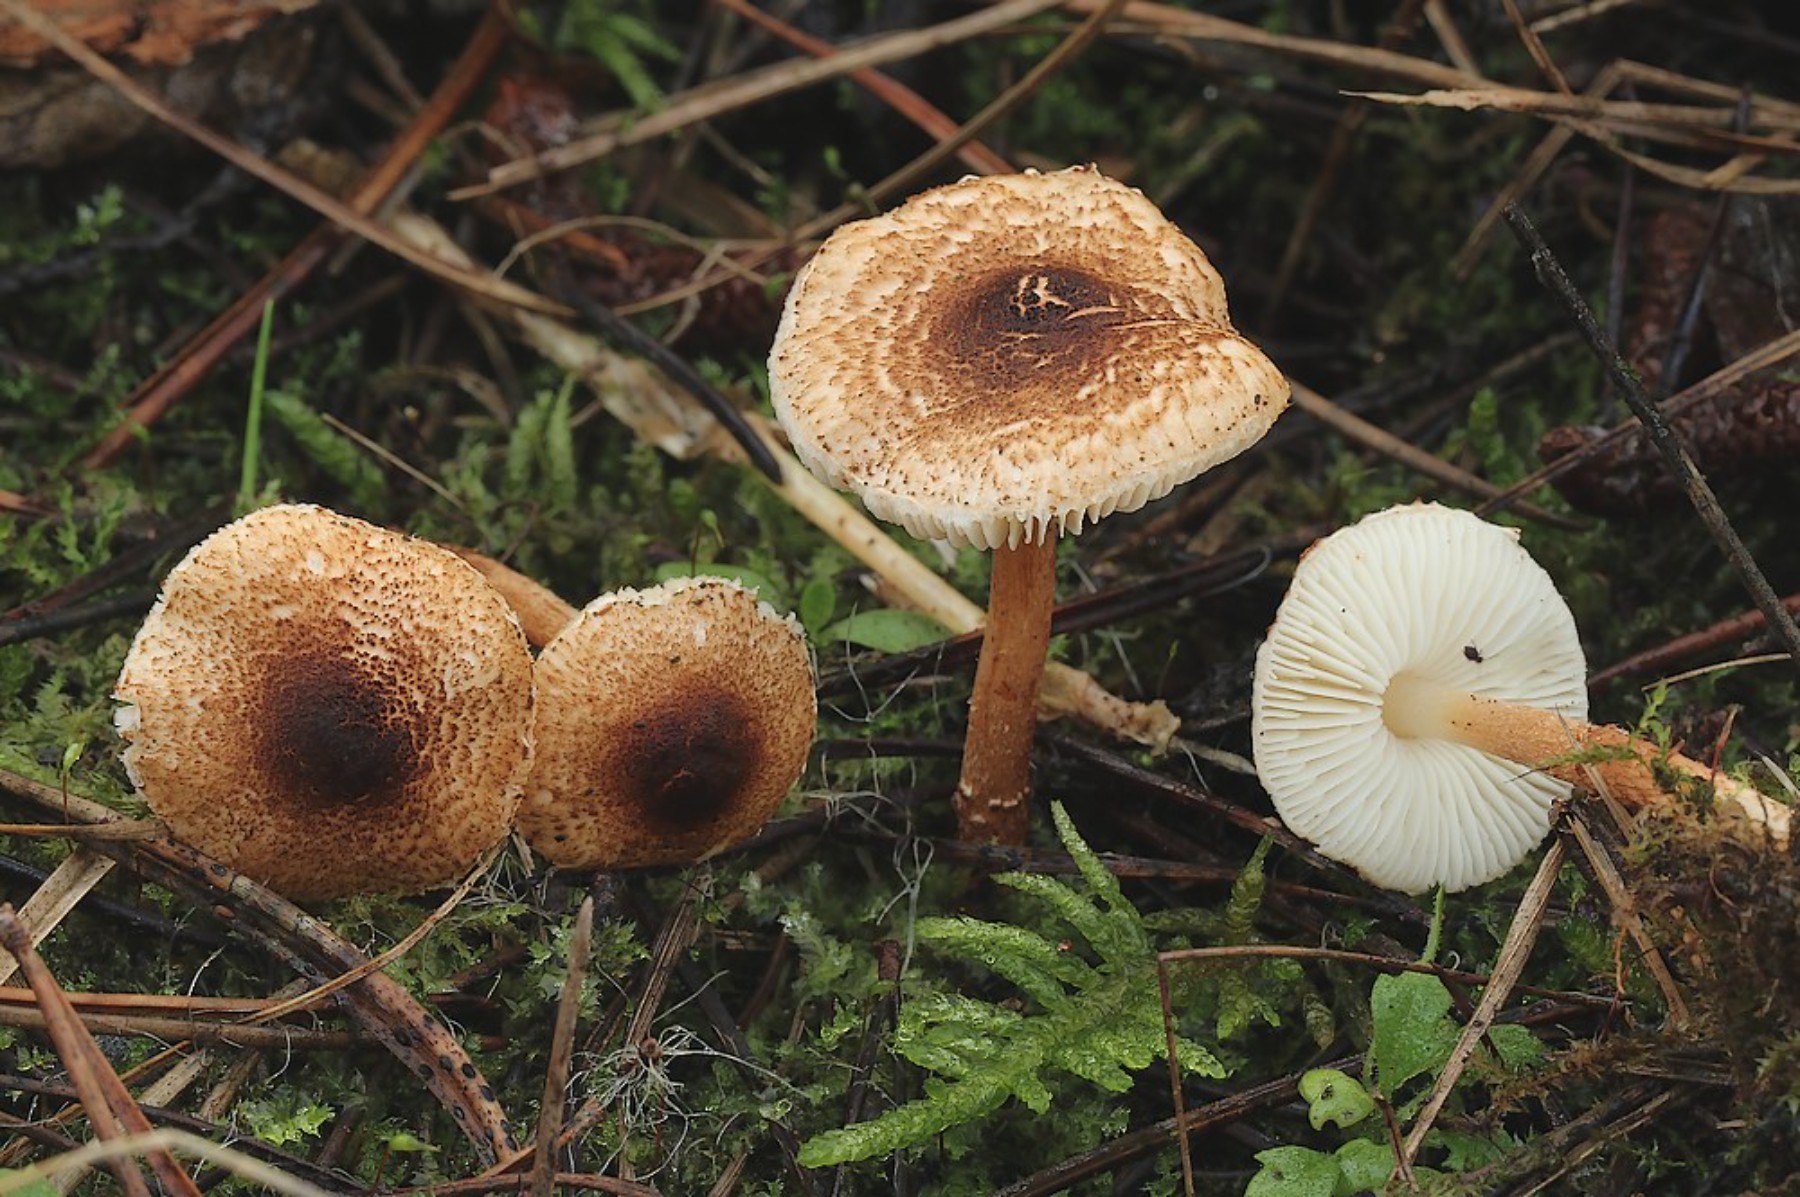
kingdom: Fungi
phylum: Basidiomycota
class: Agaricomycetes
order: Agaricales
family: Agaricaceae
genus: Lepiota
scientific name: Lepiota castanea
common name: kastaniebrun parasolhat
